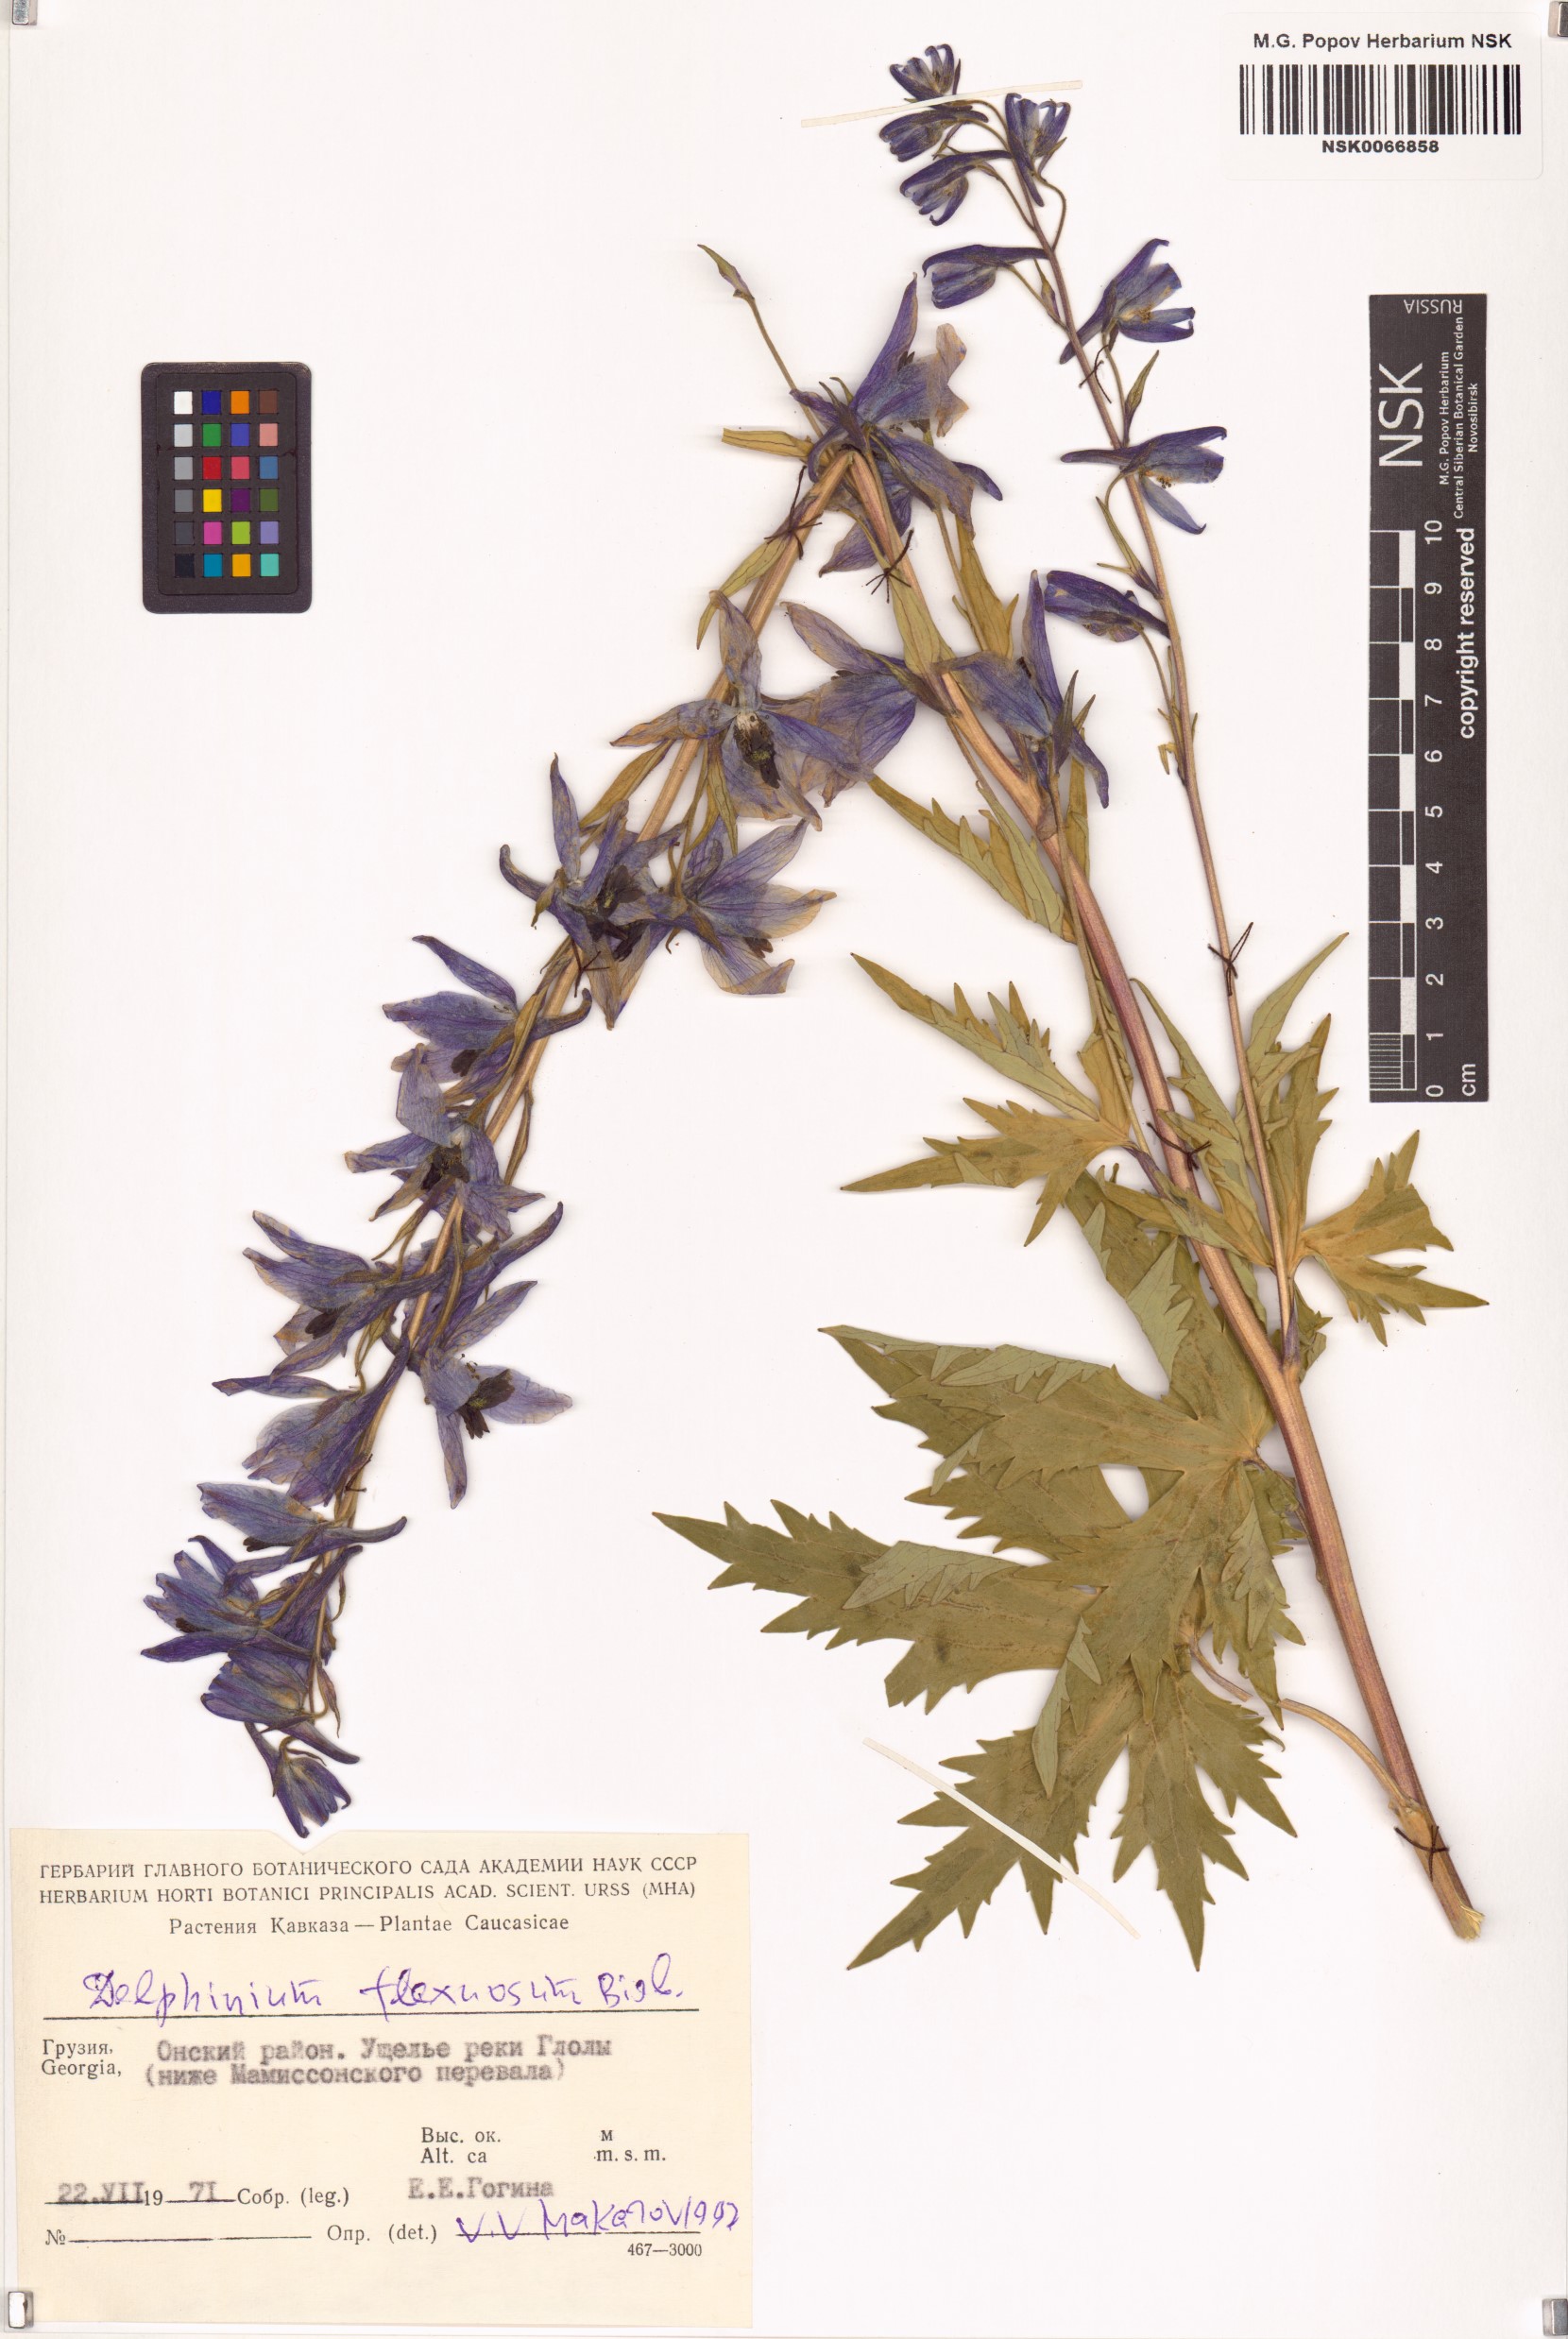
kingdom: Plantae
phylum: Tracheophyta
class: Magnoliopsida
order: Ranunculales
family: Ranunculaceae
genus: Delphinium
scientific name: Delphinium flexuosum
